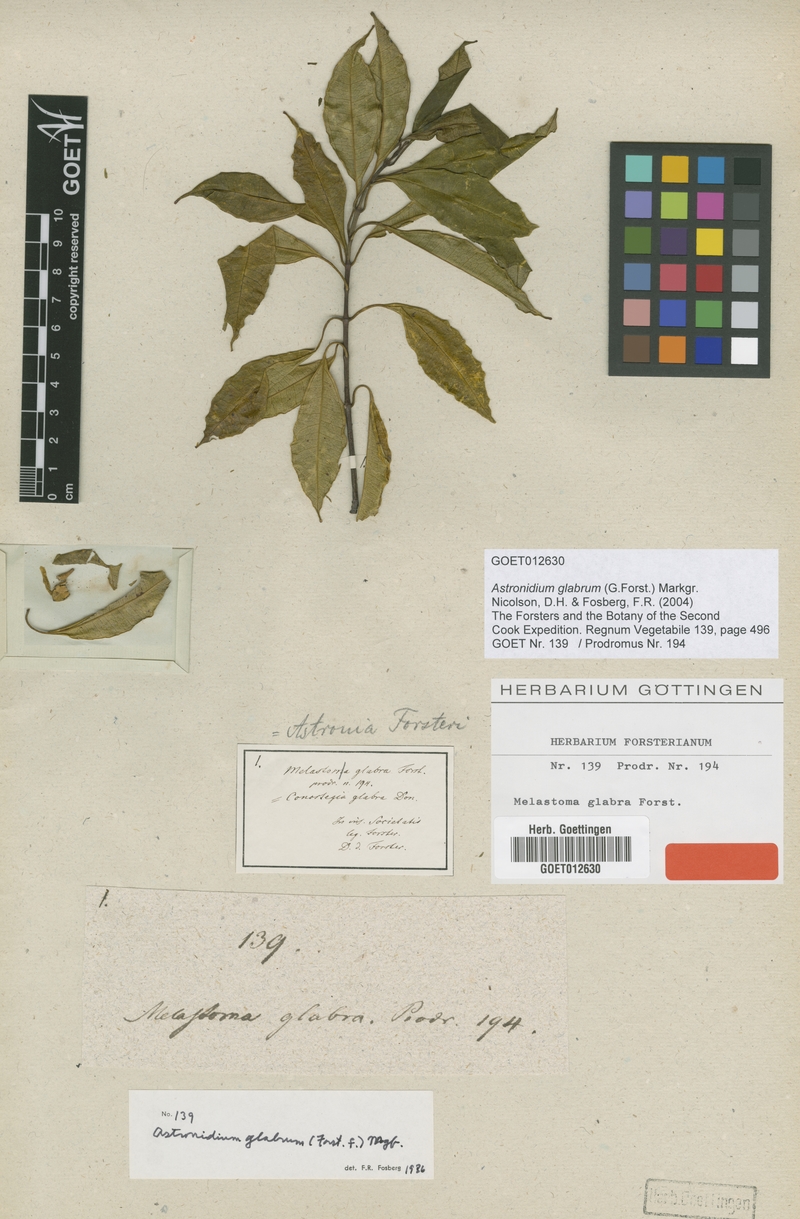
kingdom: Plantae
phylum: Tracheophyta
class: Magnoliopsida
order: Myrtales
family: Melastomataceae
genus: Astronidium
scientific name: Astronidium glabrum
